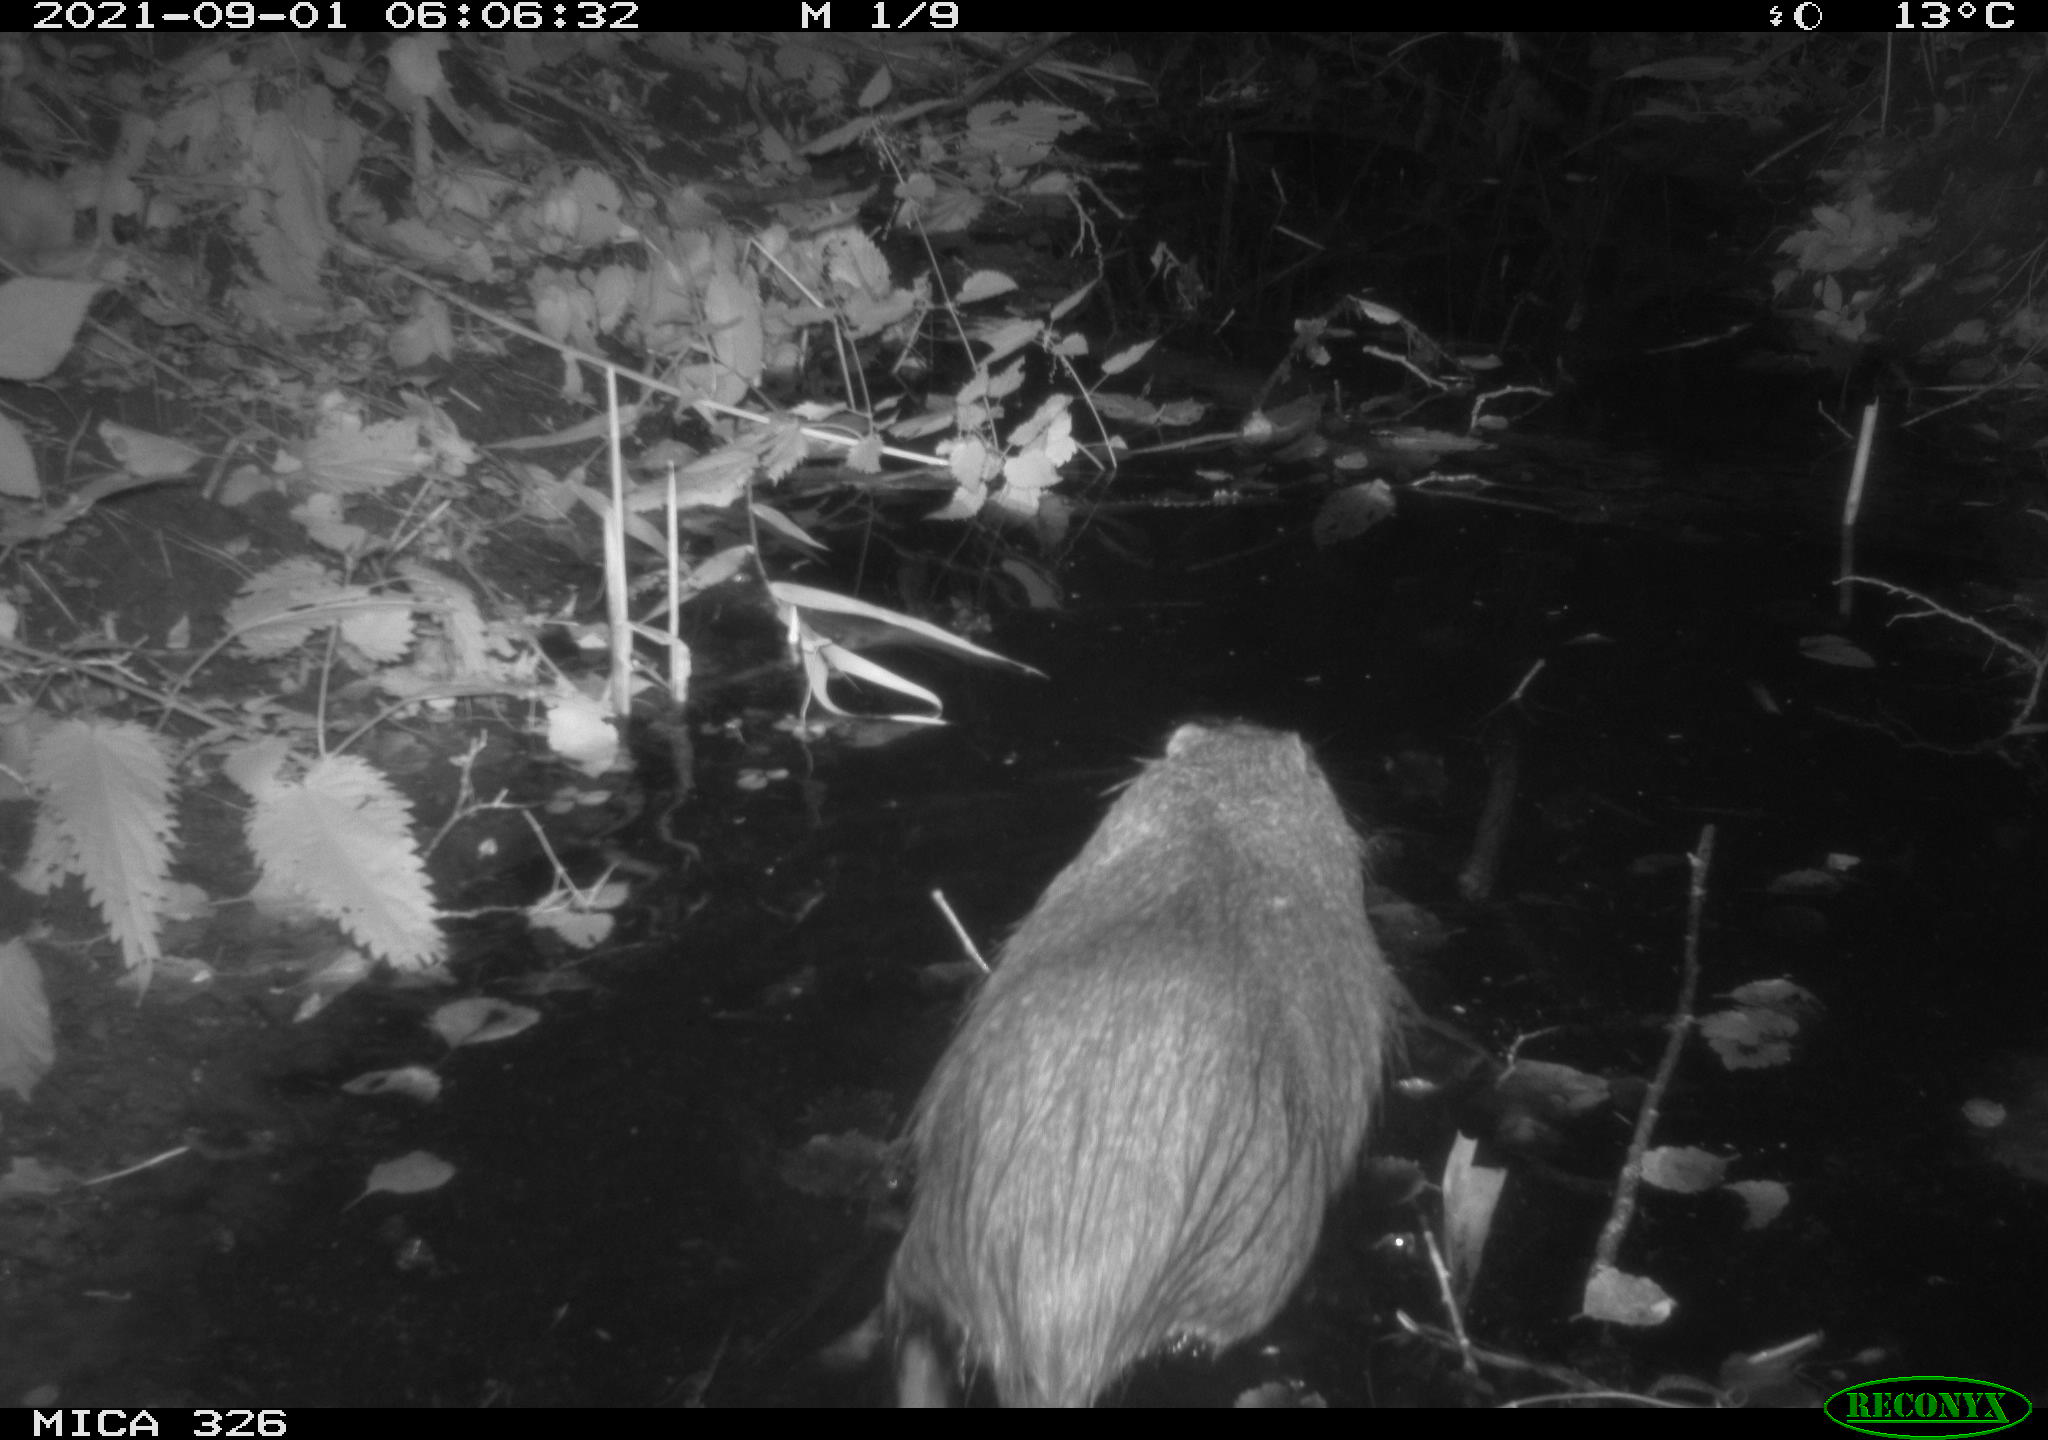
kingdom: Animalia
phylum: Chordata
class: Mammalia
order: Rodentia
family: Myocastoridae
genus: Myocastor
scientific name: Myocastor coypus
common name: Coypu
